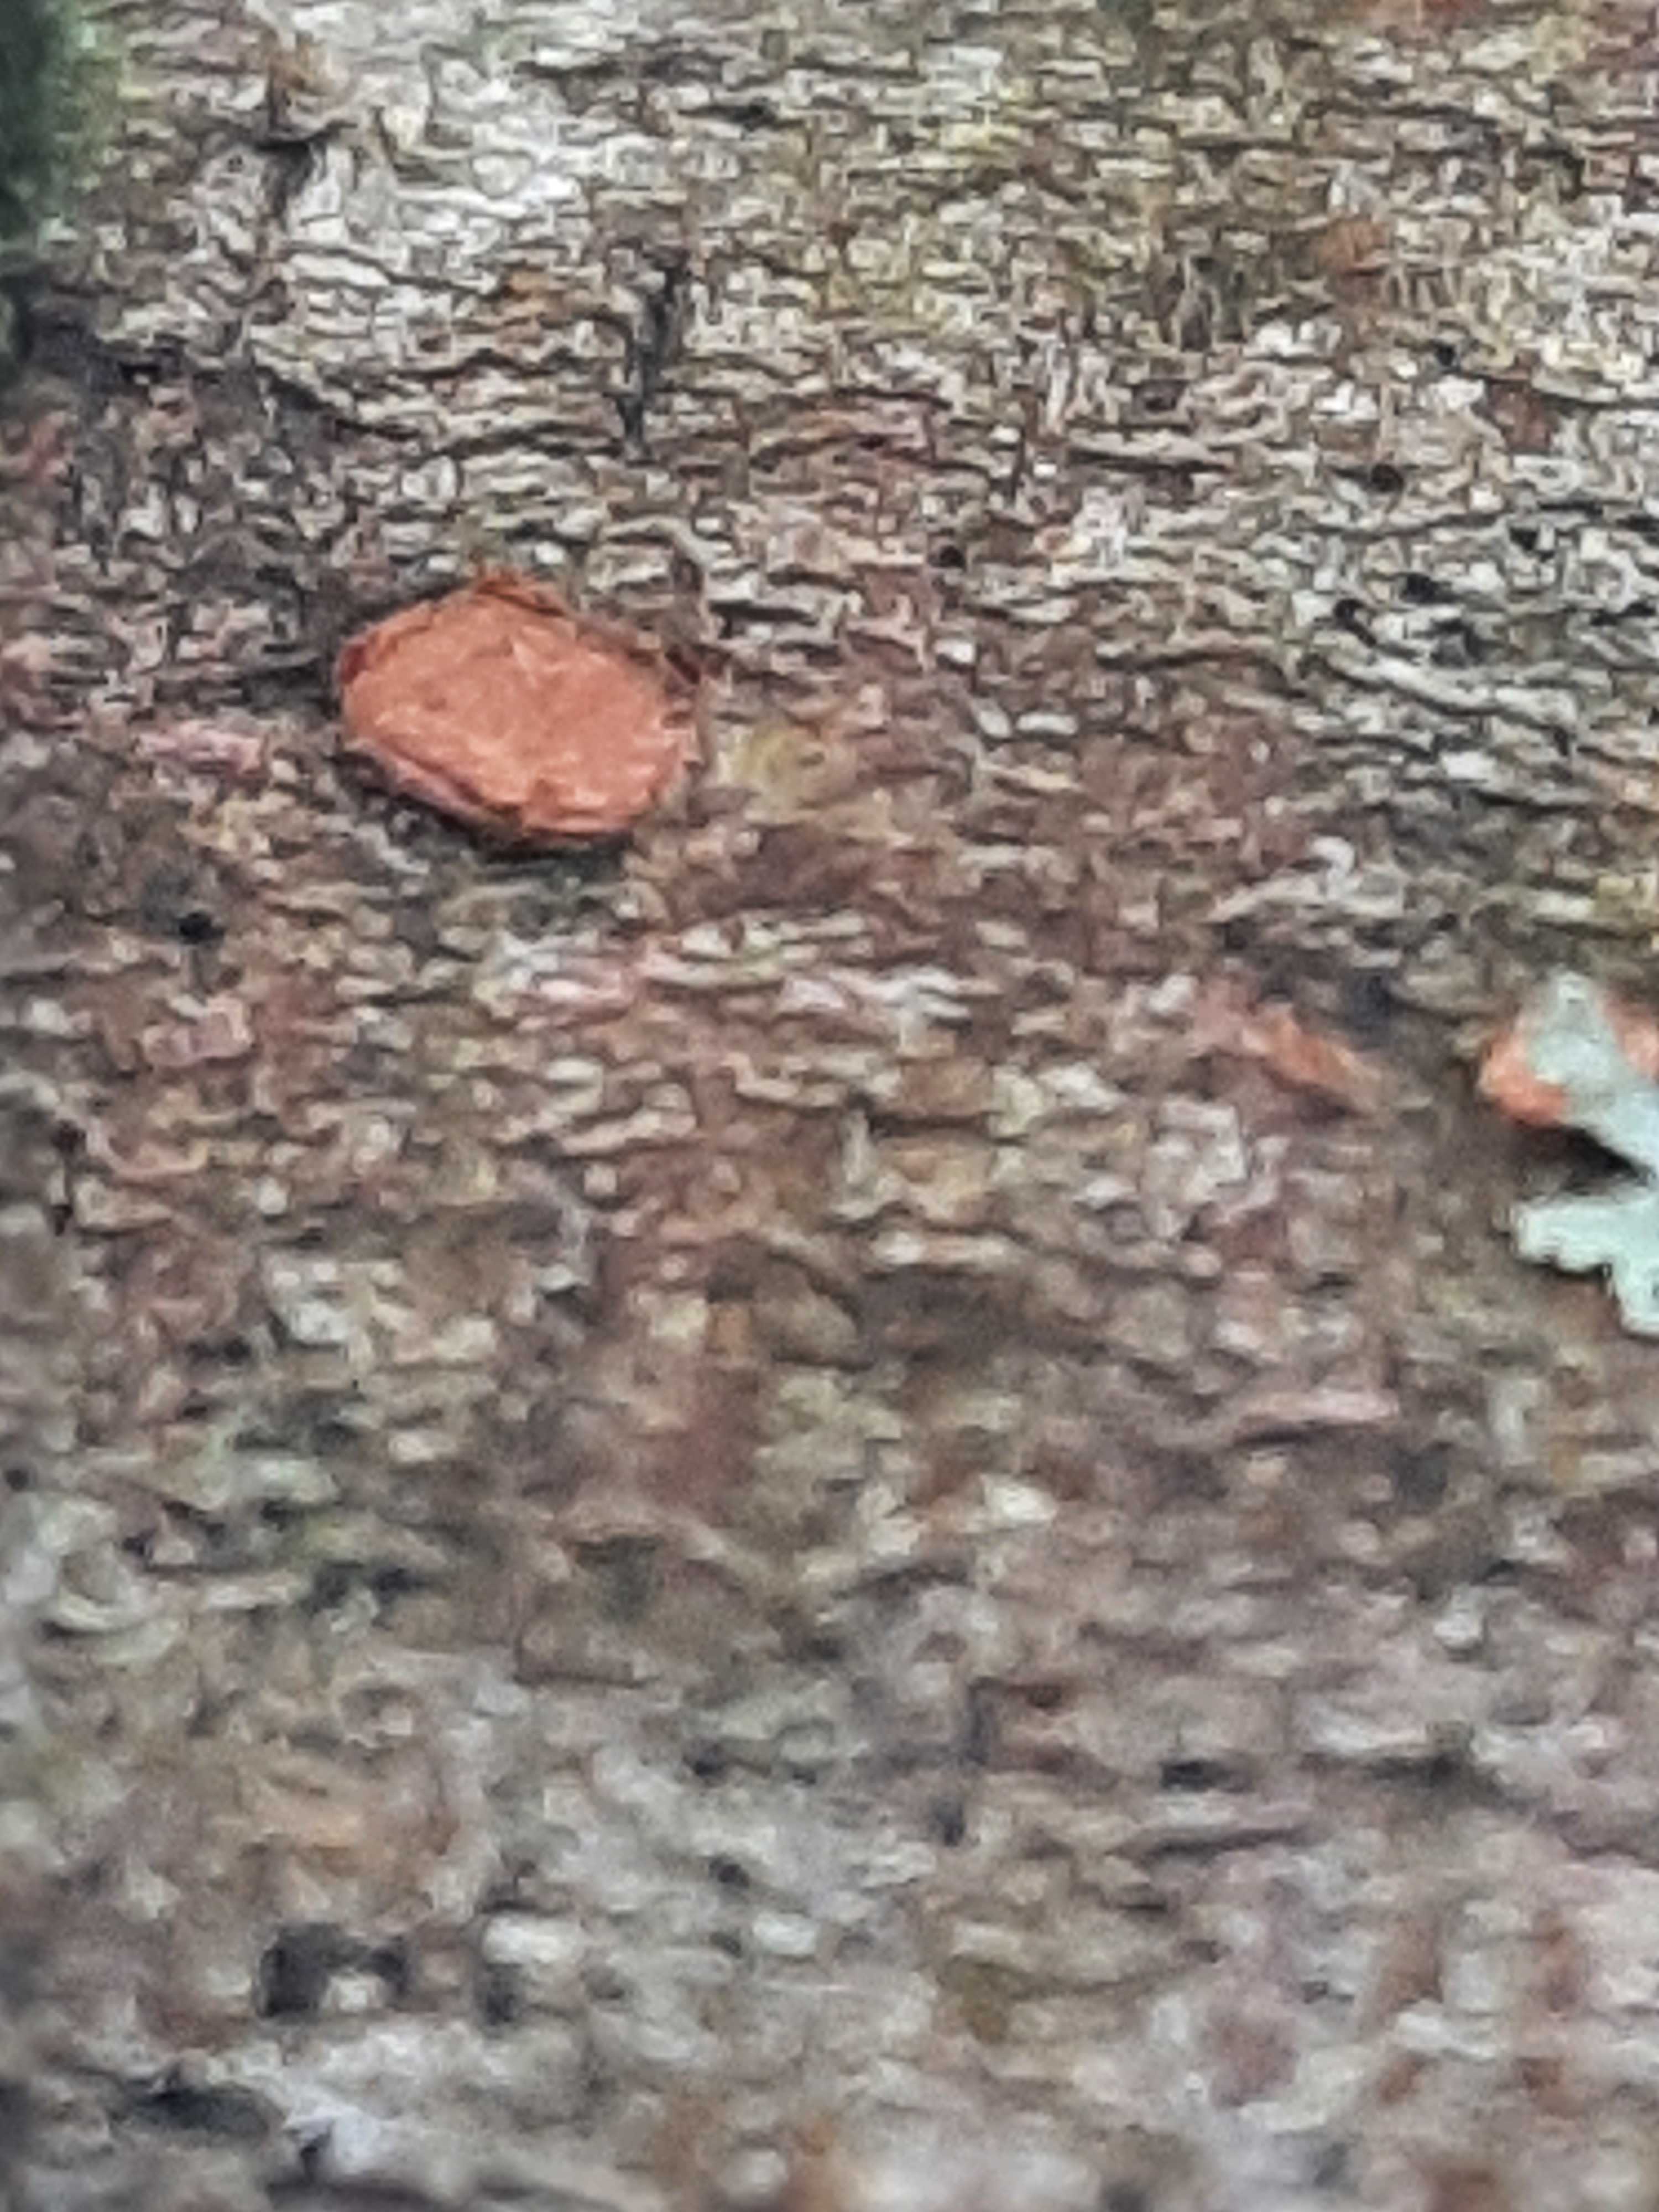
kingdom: Fungi
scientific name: Fungi
